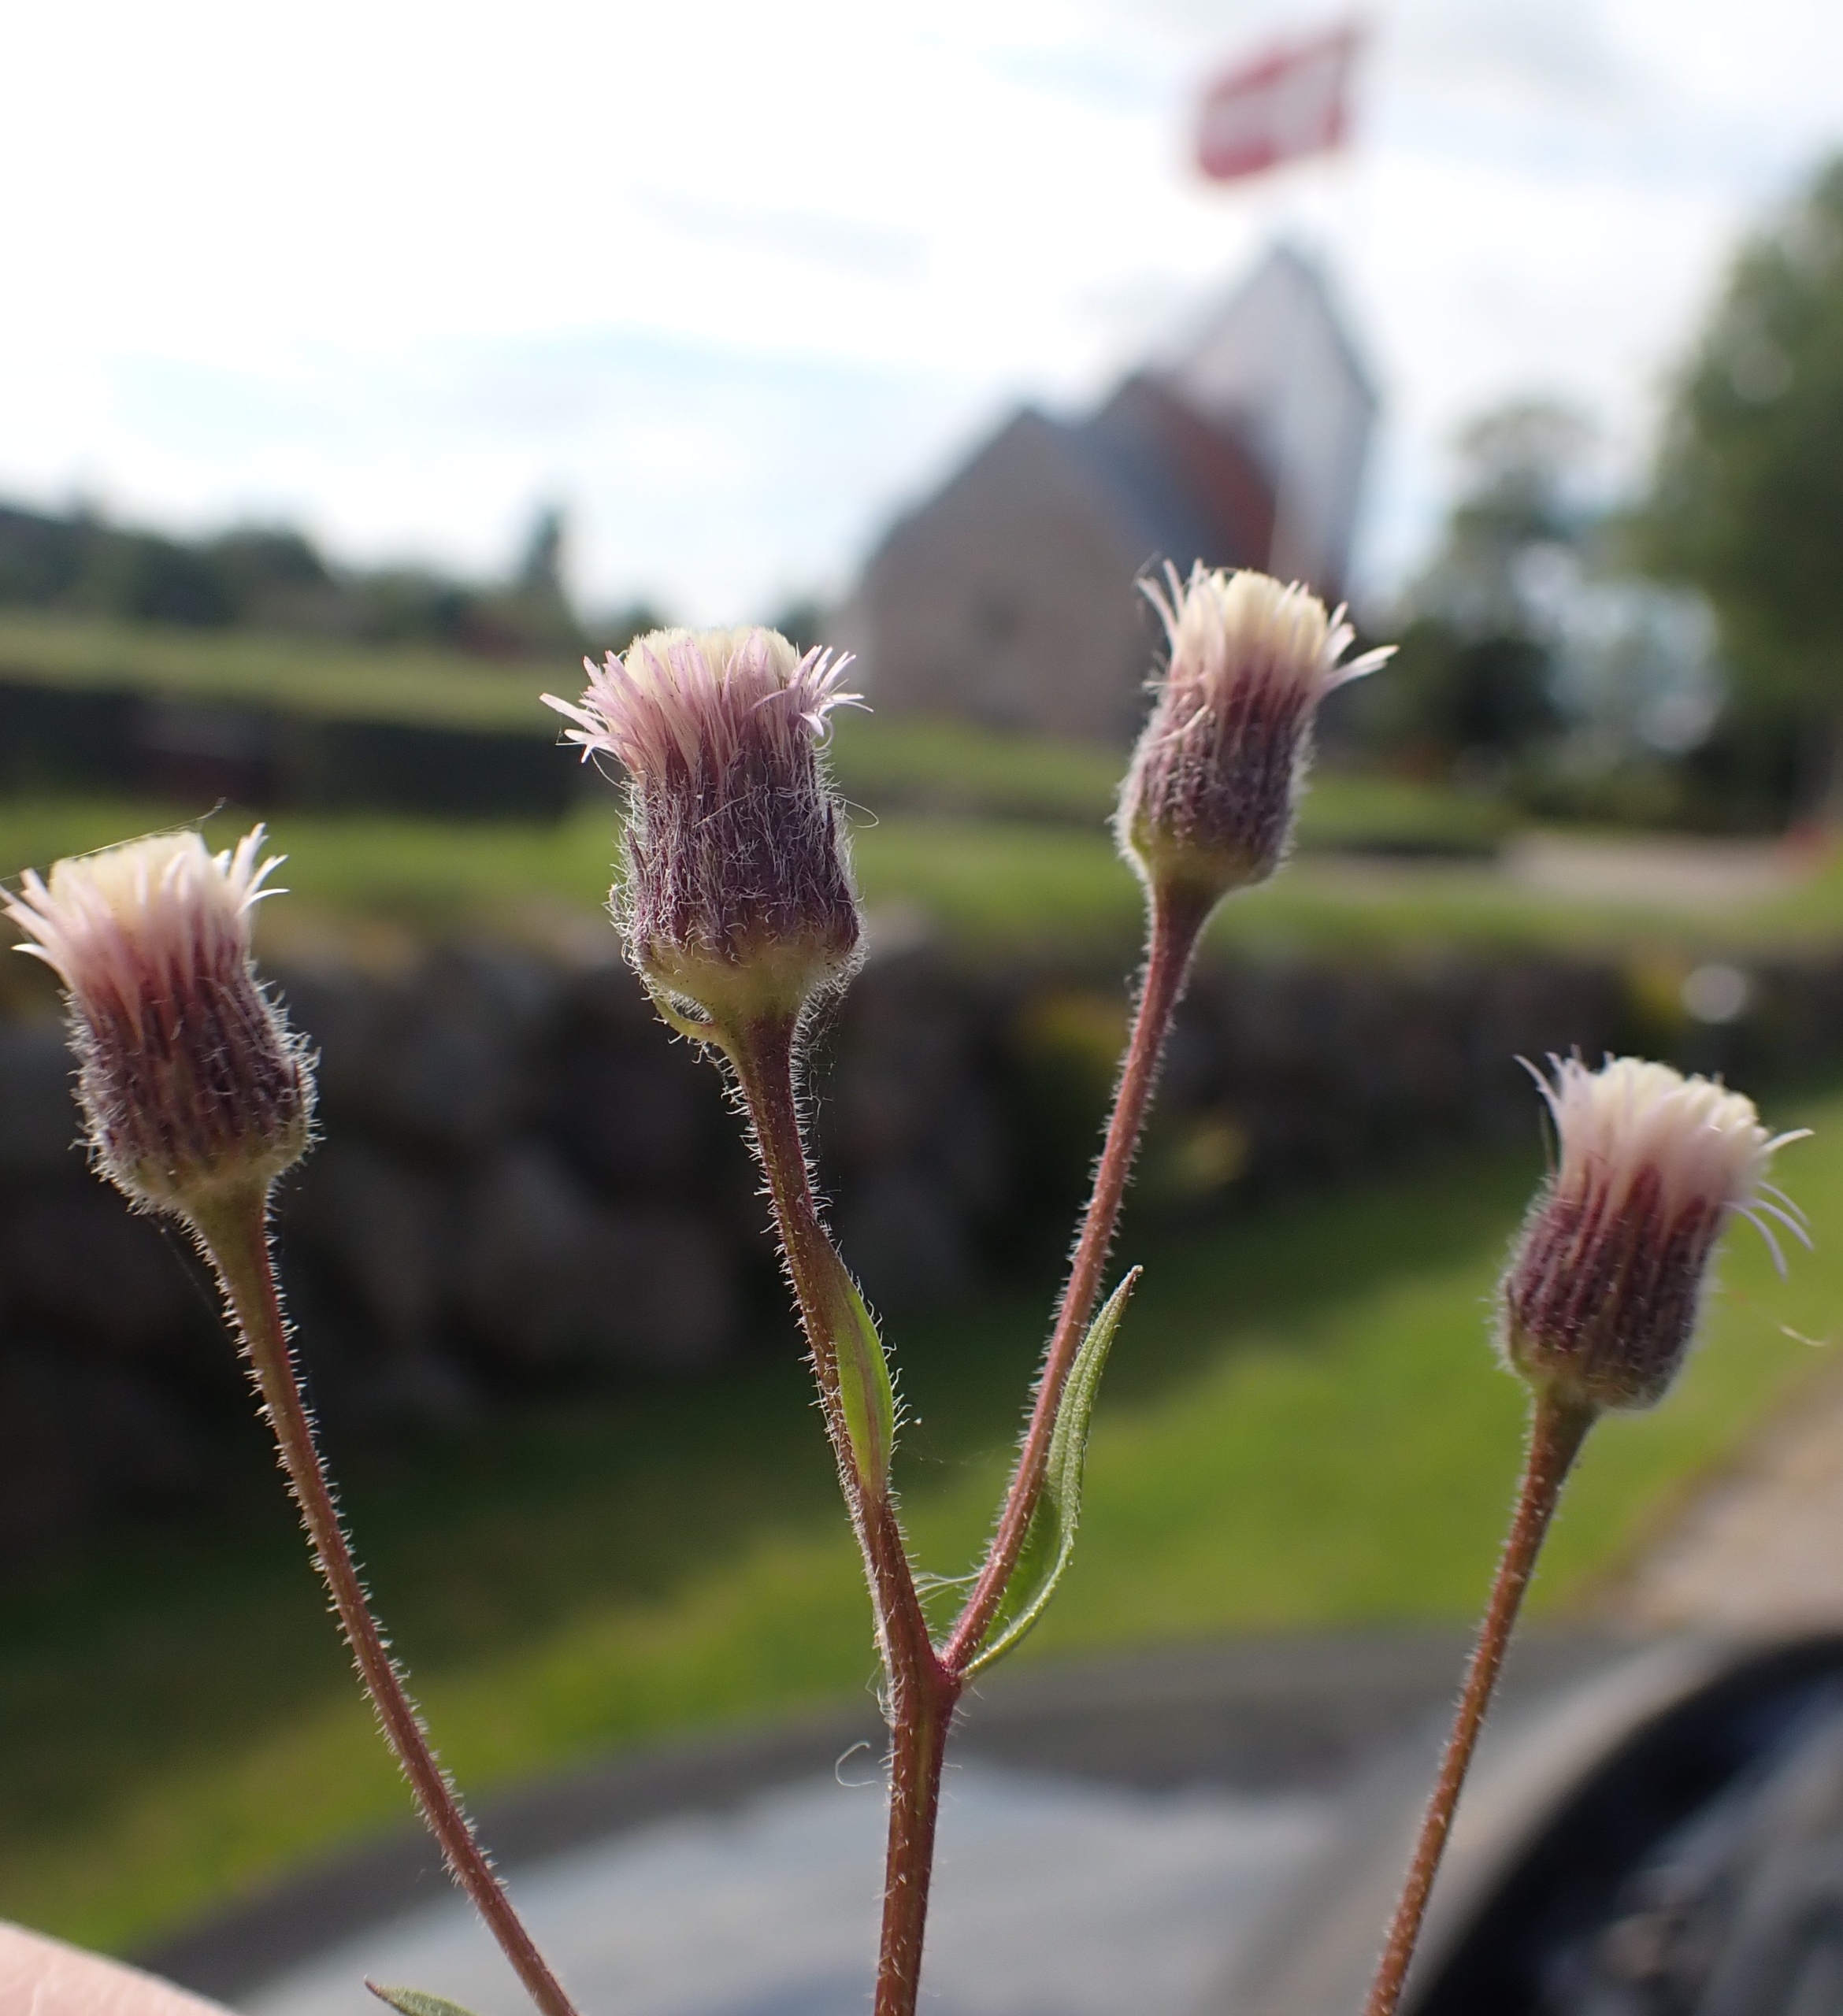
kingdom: Plantae
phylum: Tracheophyta
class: Magnoliopsida
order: Asterales
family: Asteraceae
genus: Erigeron
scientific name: Erigeron acris
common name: Bitter bakkestjerne
